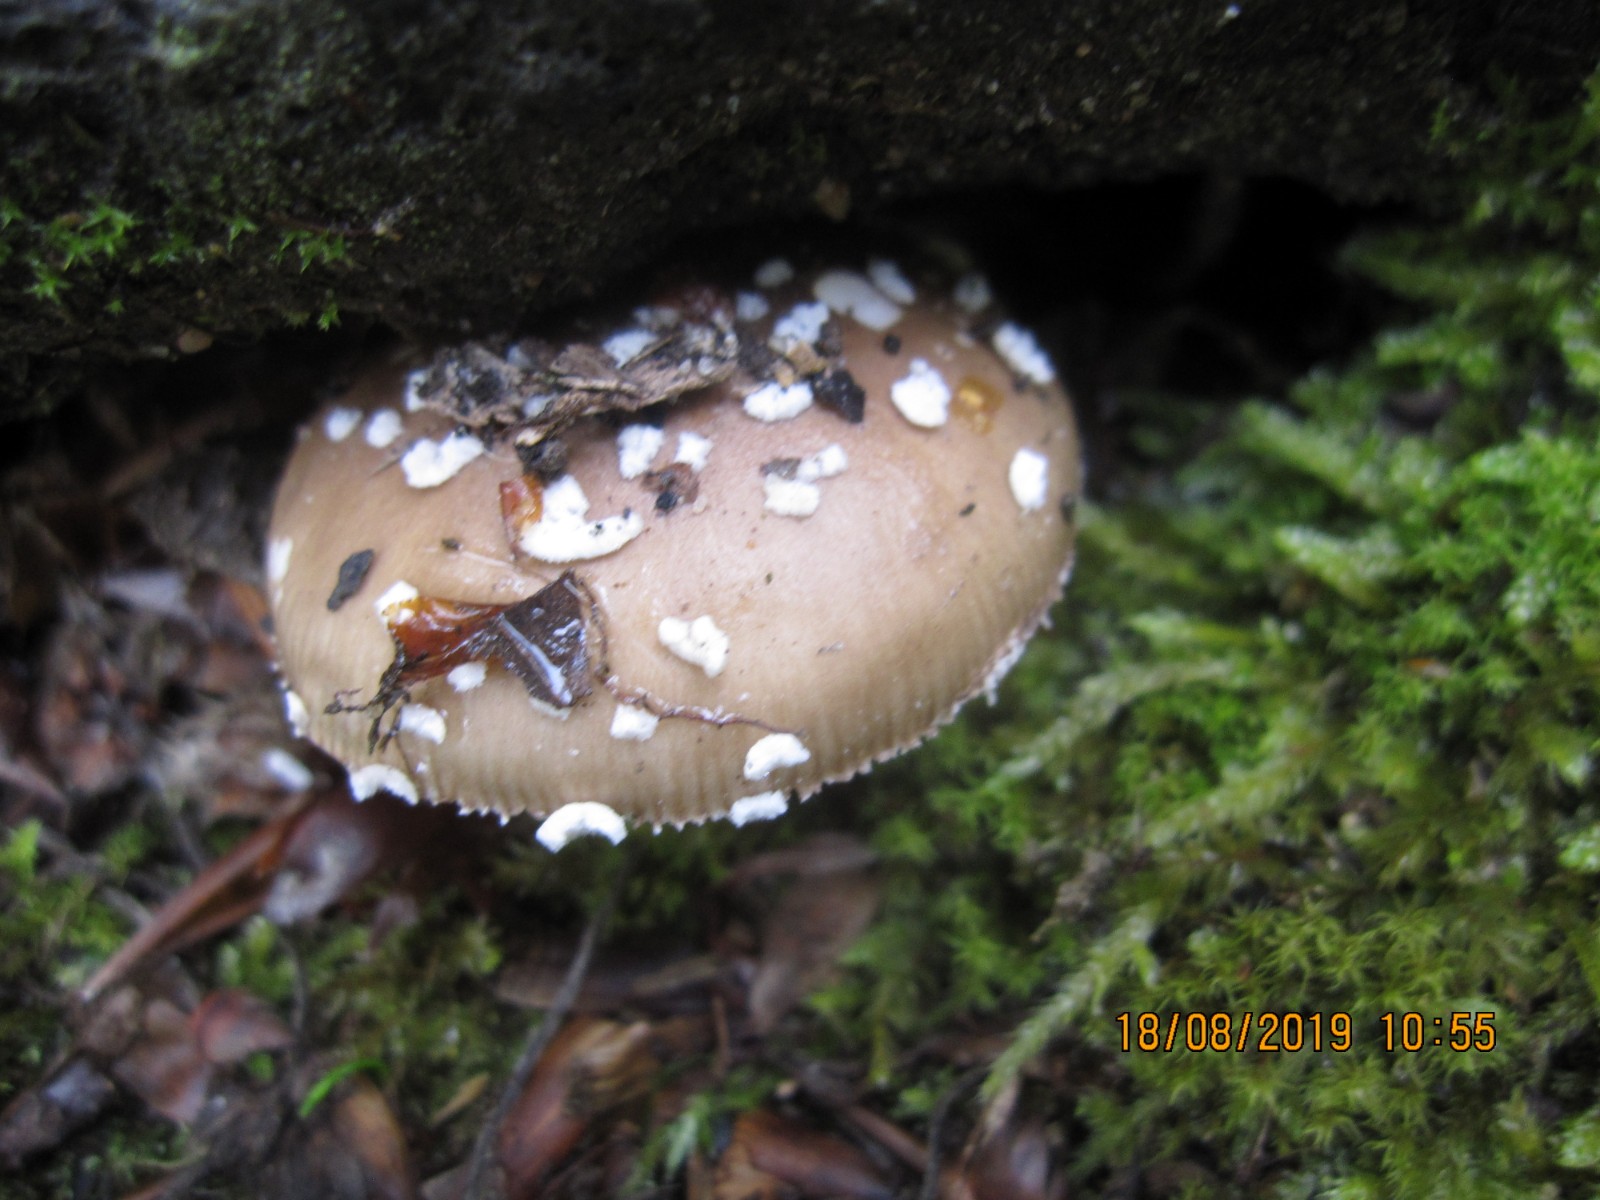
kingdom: Fungi
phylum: Basidiomycota
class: Agaricomycetes
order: Agaricales
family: Amanitaceae
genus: Amanita
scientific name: Amanita pantherina
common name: panter-fluesvamp
